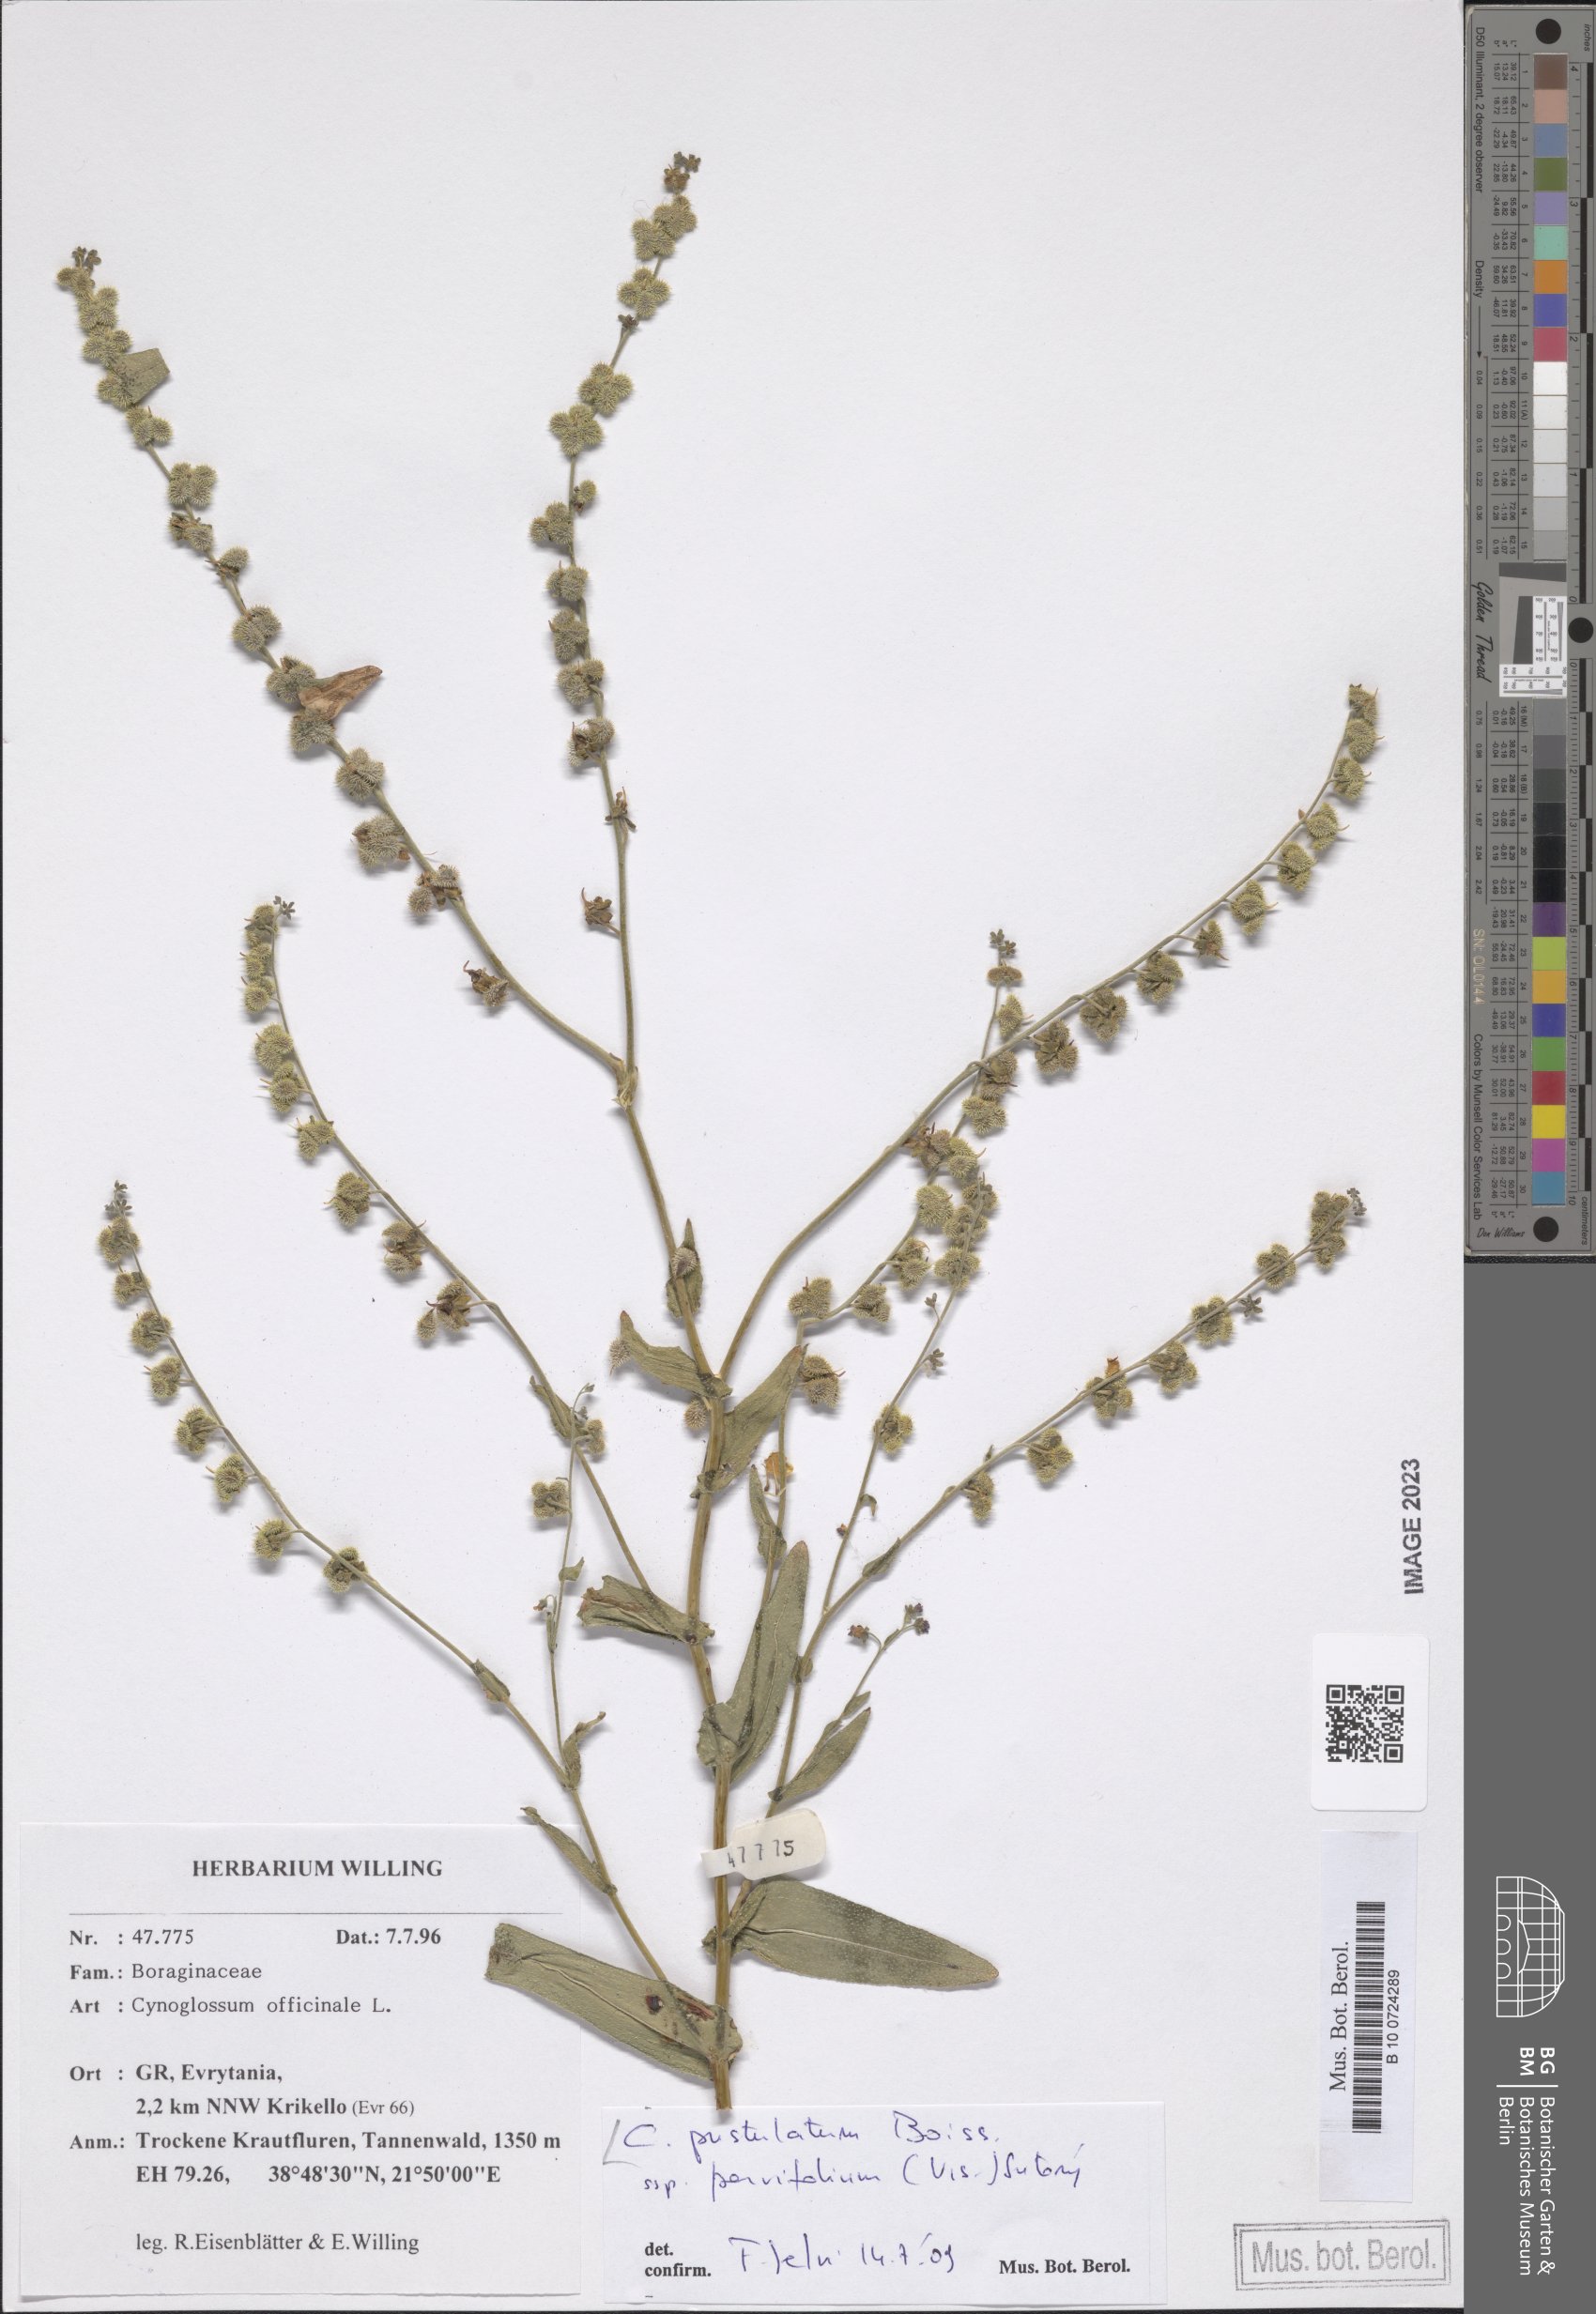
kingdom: Plantae
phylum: Tracheophyta
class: Magnoliopsida
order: Boraginales
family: Boraginaceae
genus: Cynoglossum
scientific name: Cynoglossum pustulatum
